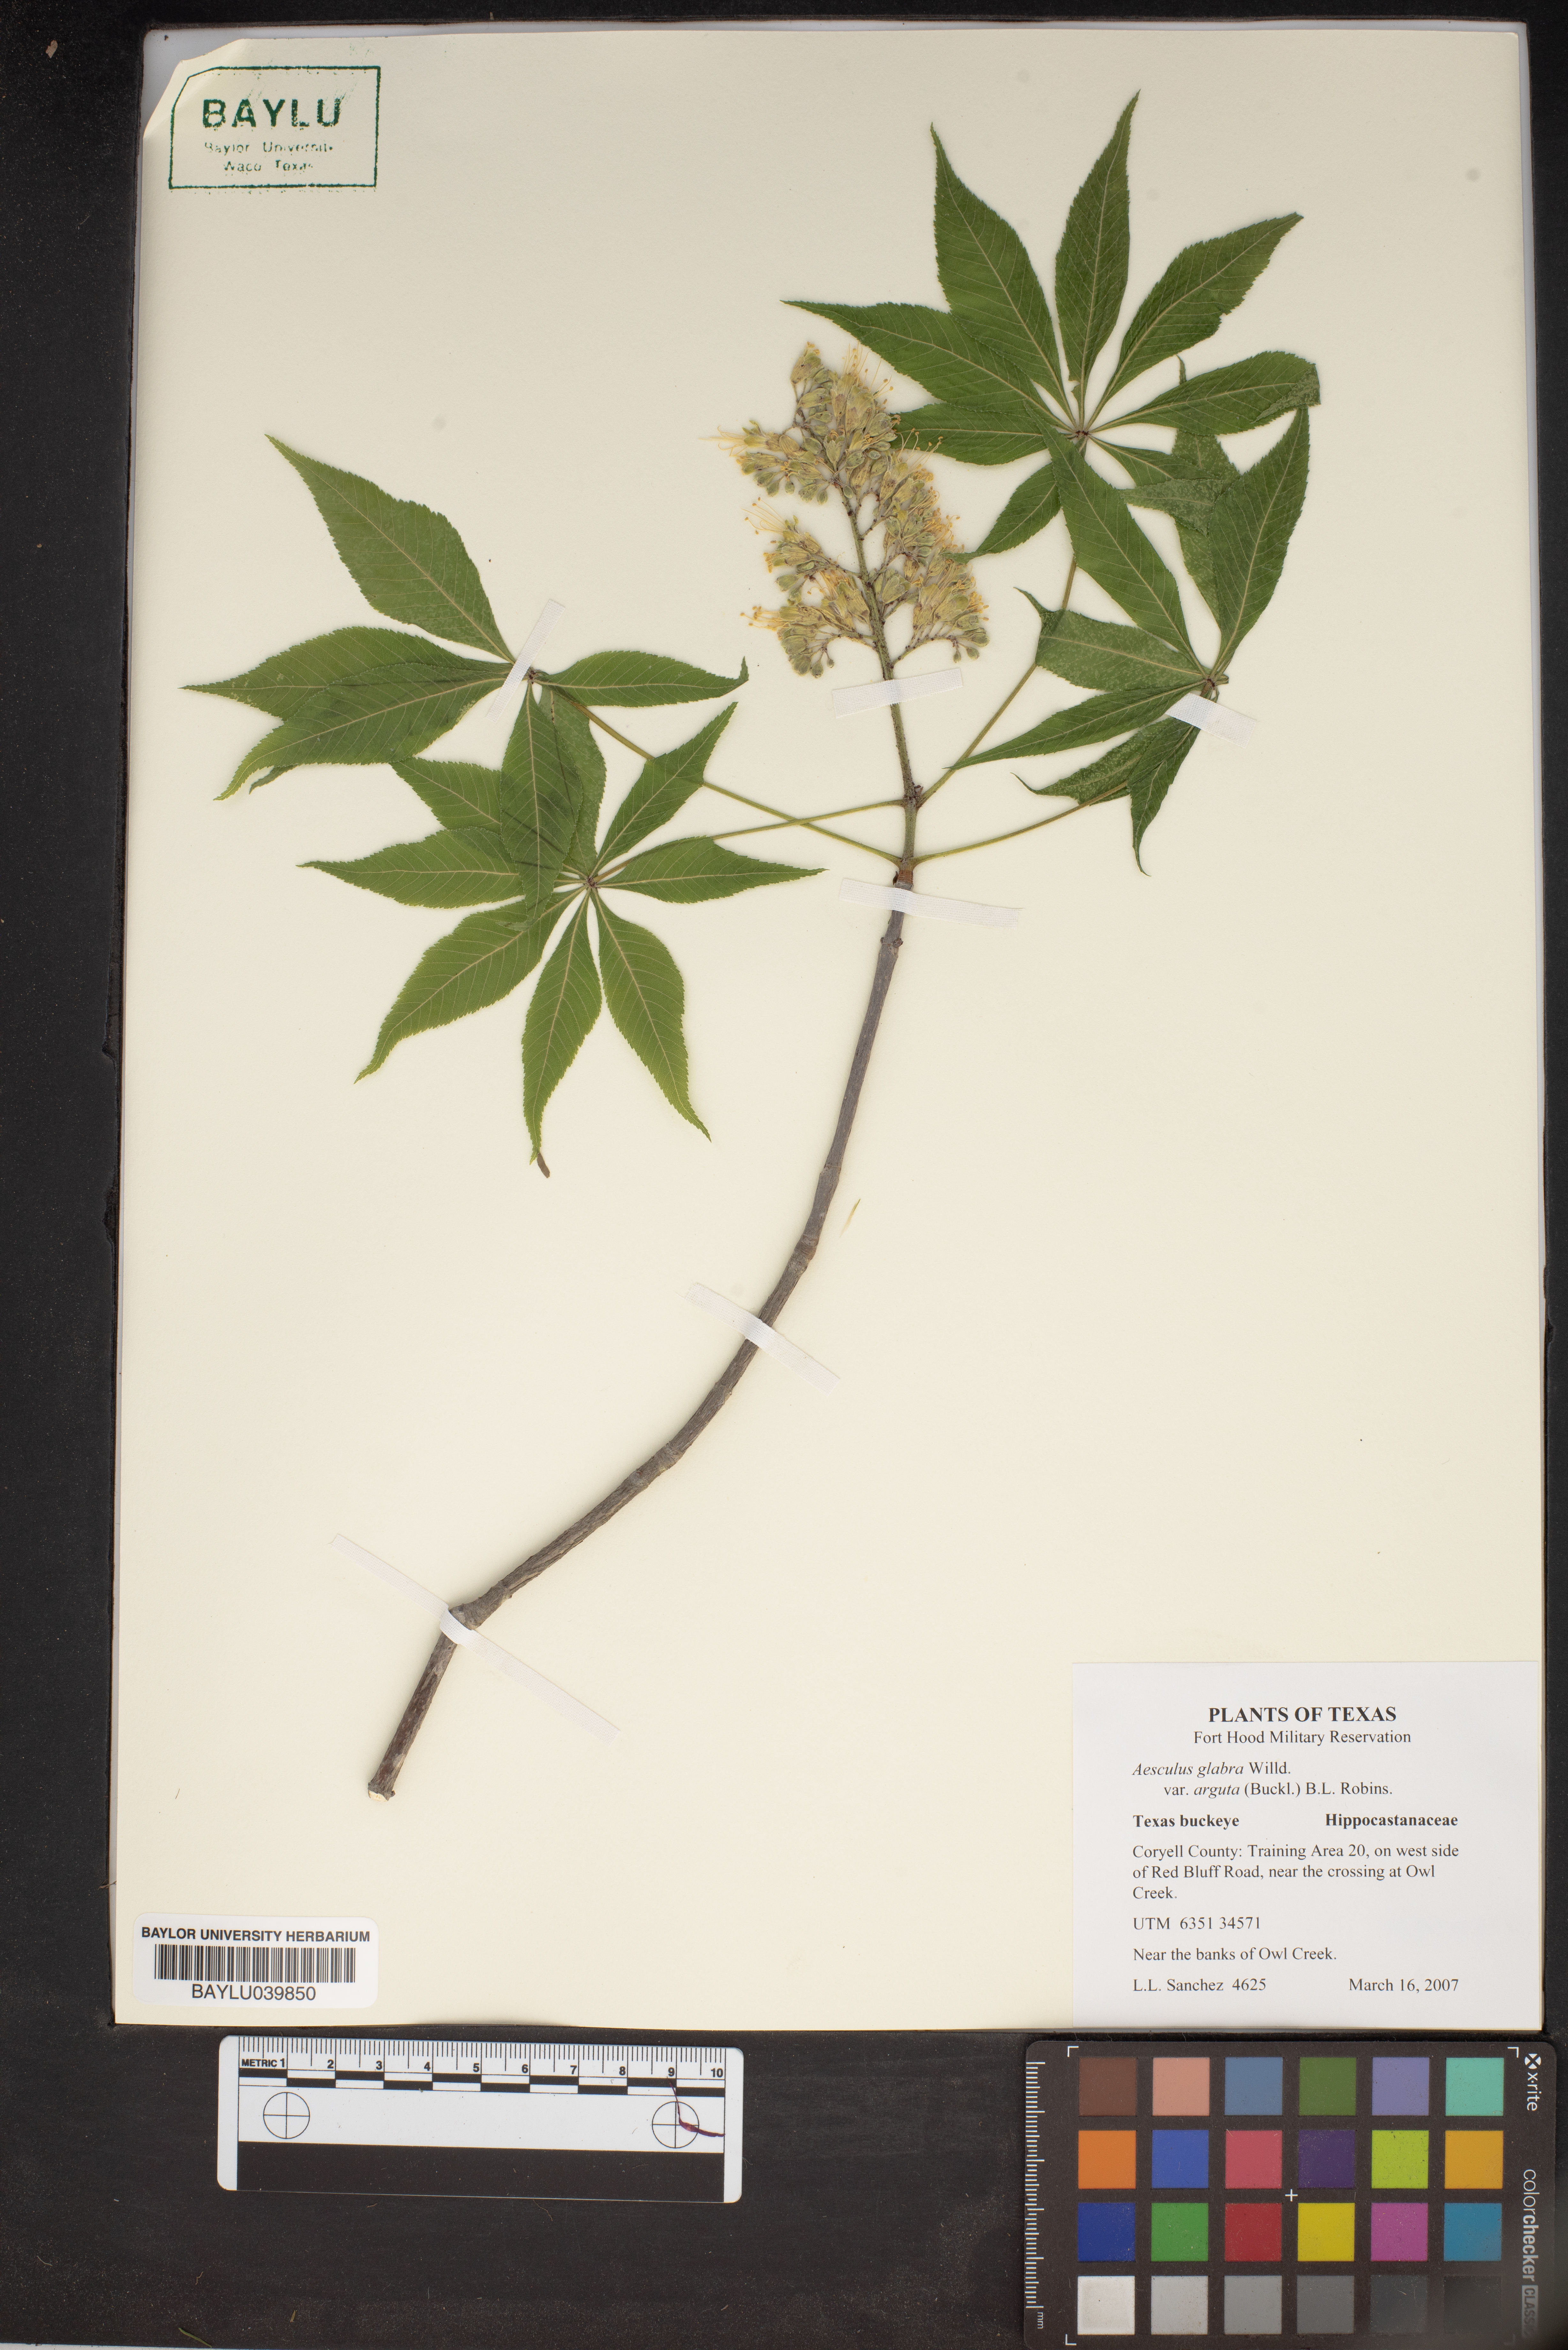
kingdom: Plantae
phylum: Tracheophyta
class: Magnoliopsida
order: Sapindales
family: Sapindaceae
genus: Aesculus
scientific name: Aesculus glabra
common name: Ohio buckeye
